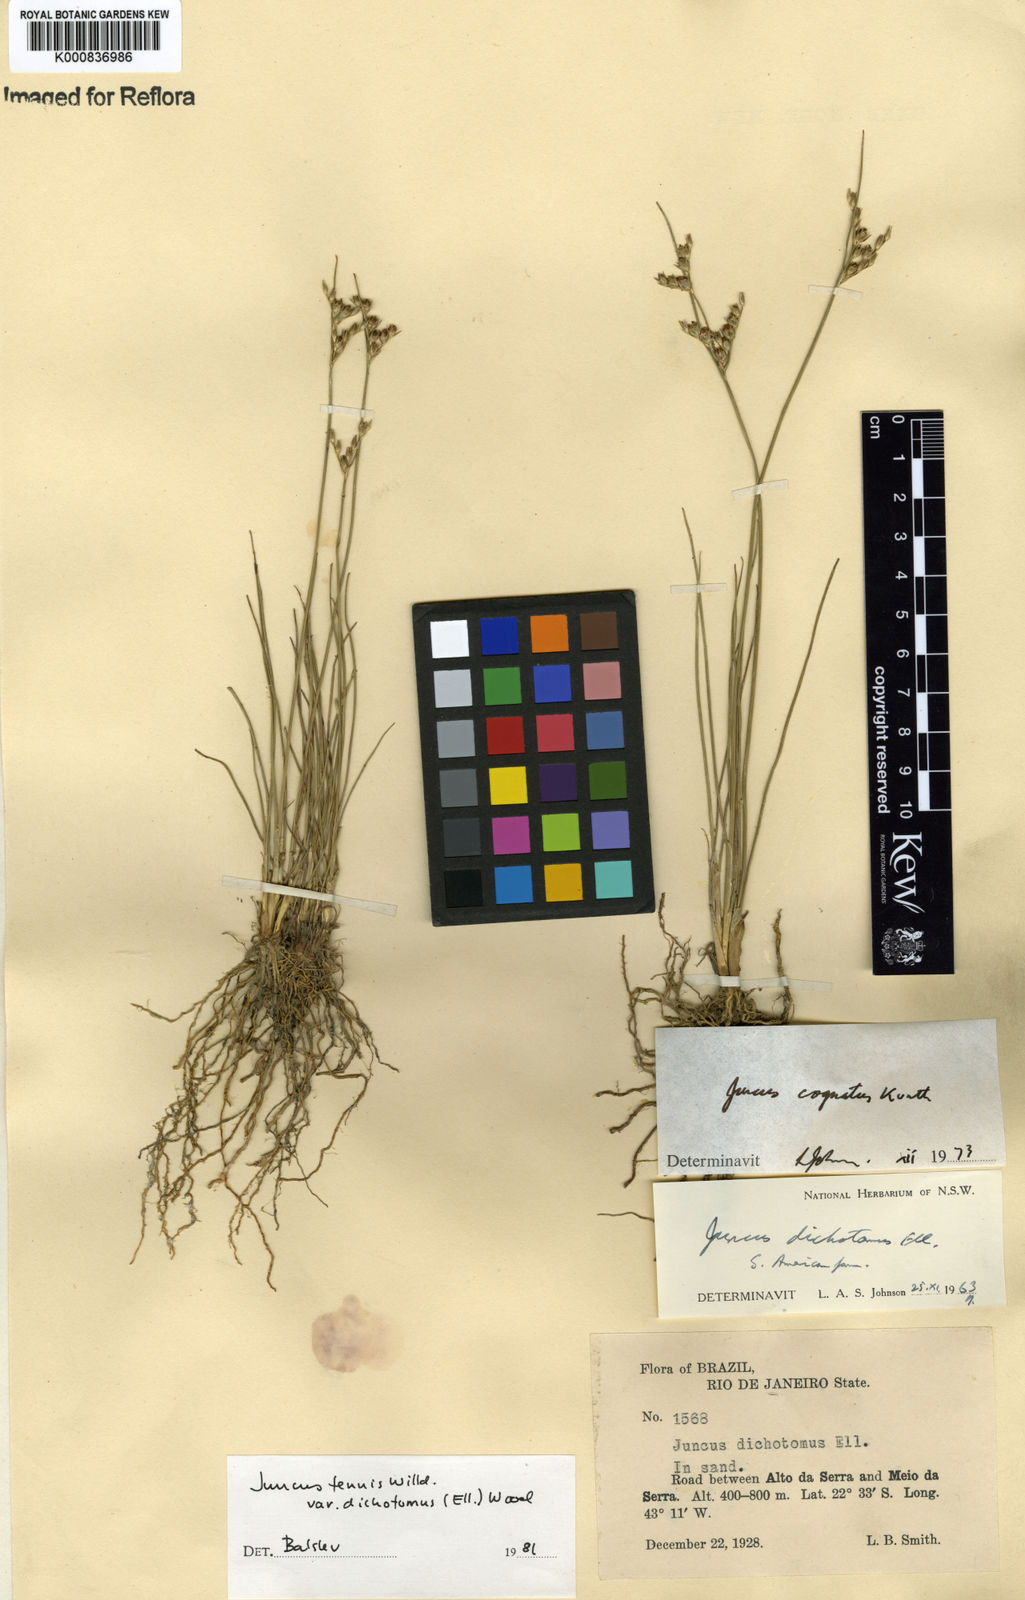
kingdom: Plantae
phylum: Tracheophyta
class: Liliopsida
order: Poales
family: Juncaceae
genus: Juncus
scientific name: Juncus
